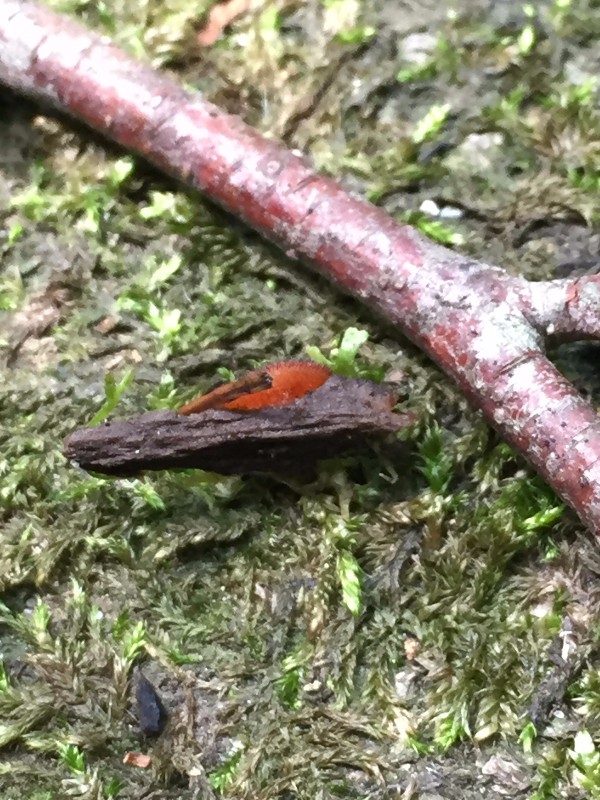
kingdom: Fungi
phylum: Ascomycota
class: Pezizomycetes
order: Pezizales
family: Pyronemataceae
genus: Scutellinia
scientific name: Scutellinia scutellata
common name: frynset skjoldbæger
